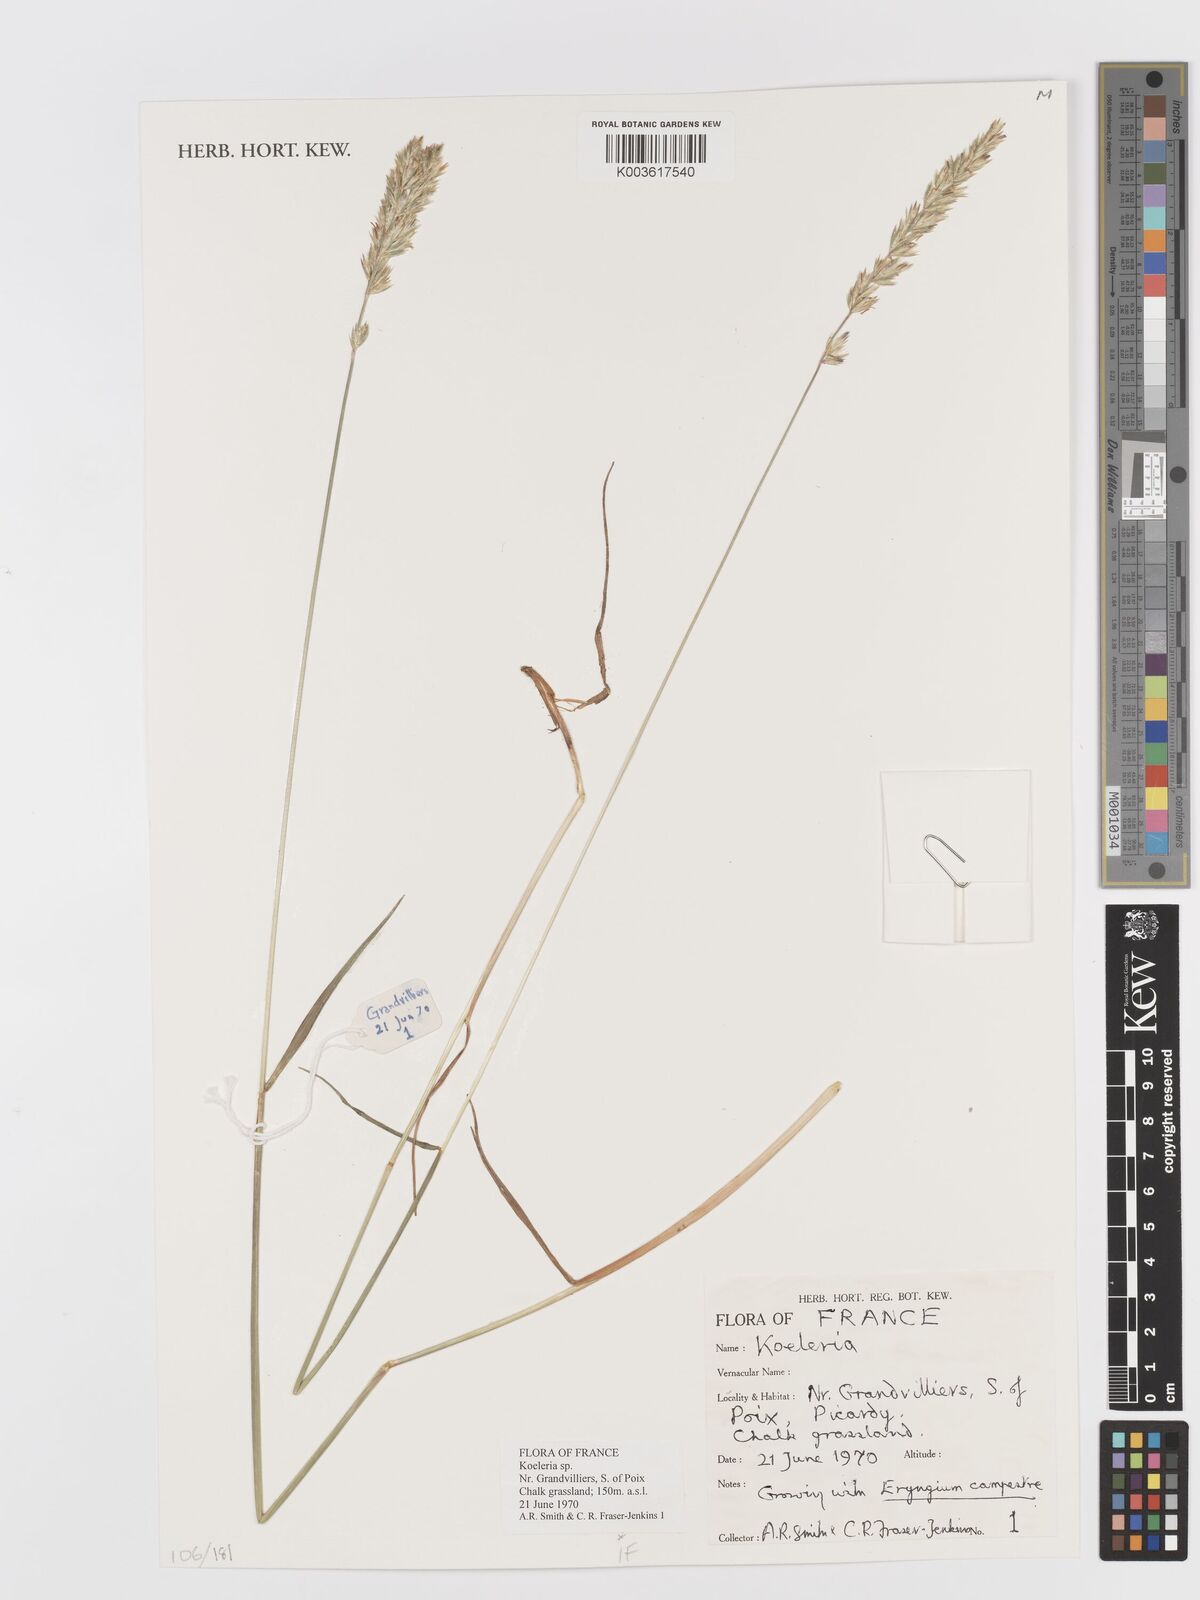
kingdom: Plantae
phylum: Tracheophyta
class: Liliopsida
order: Poales
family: Poaceae
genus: Koeleria
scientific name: Koeleria
